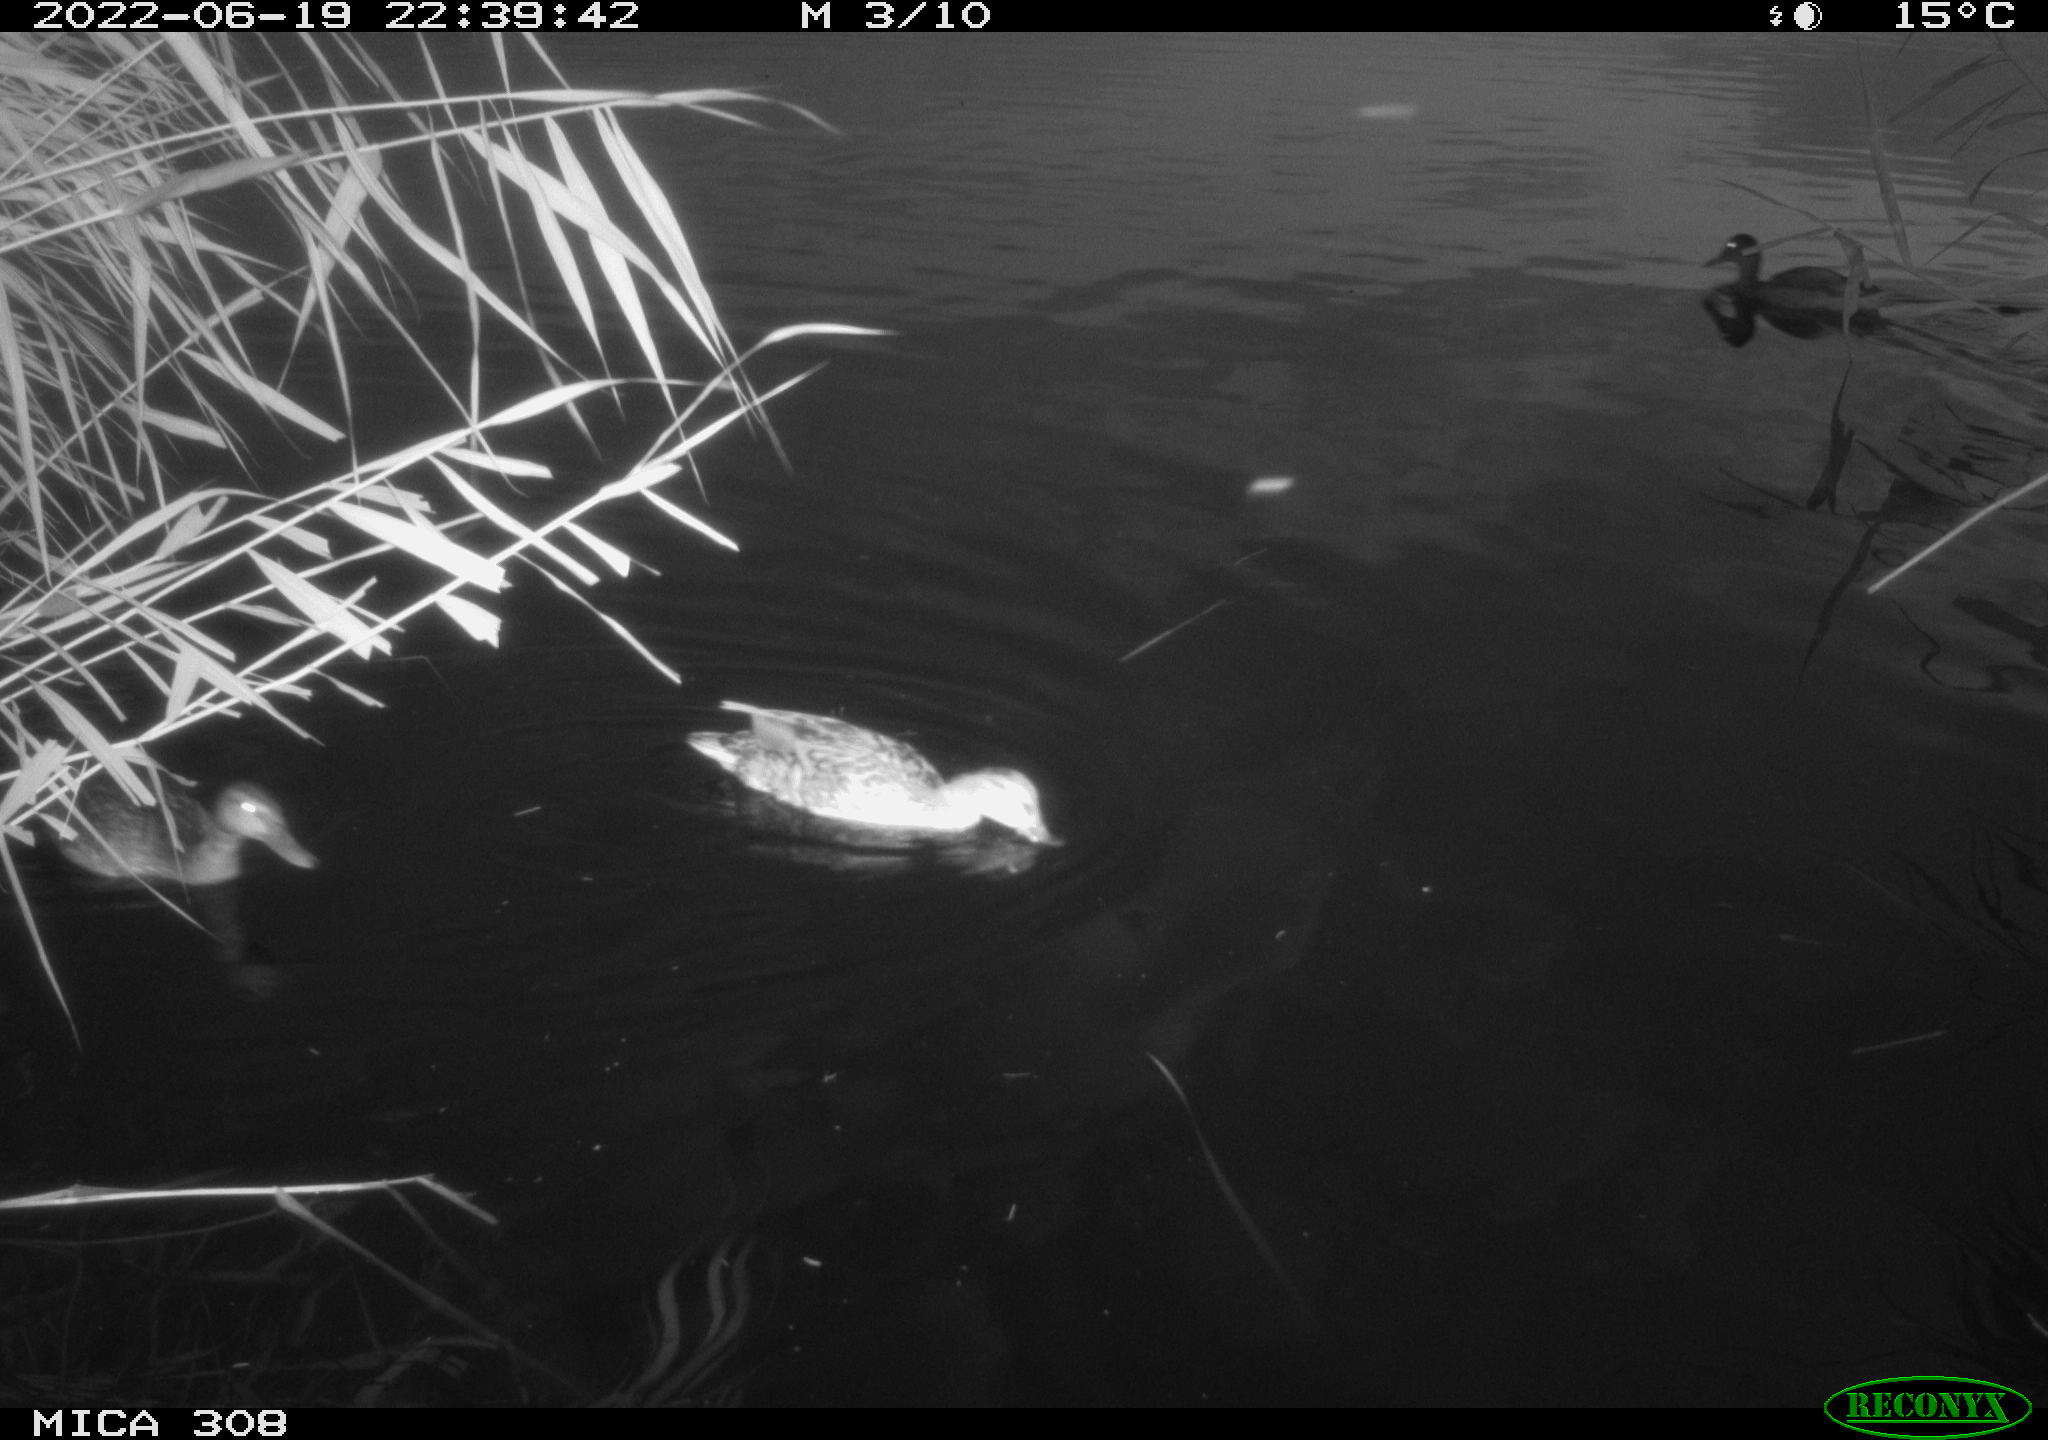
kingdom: Animalia
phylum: Chordata
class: Aves
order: Anseriformes
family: Anatidae
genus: Mareca
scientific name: Mareca strepera
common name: Gadwall
